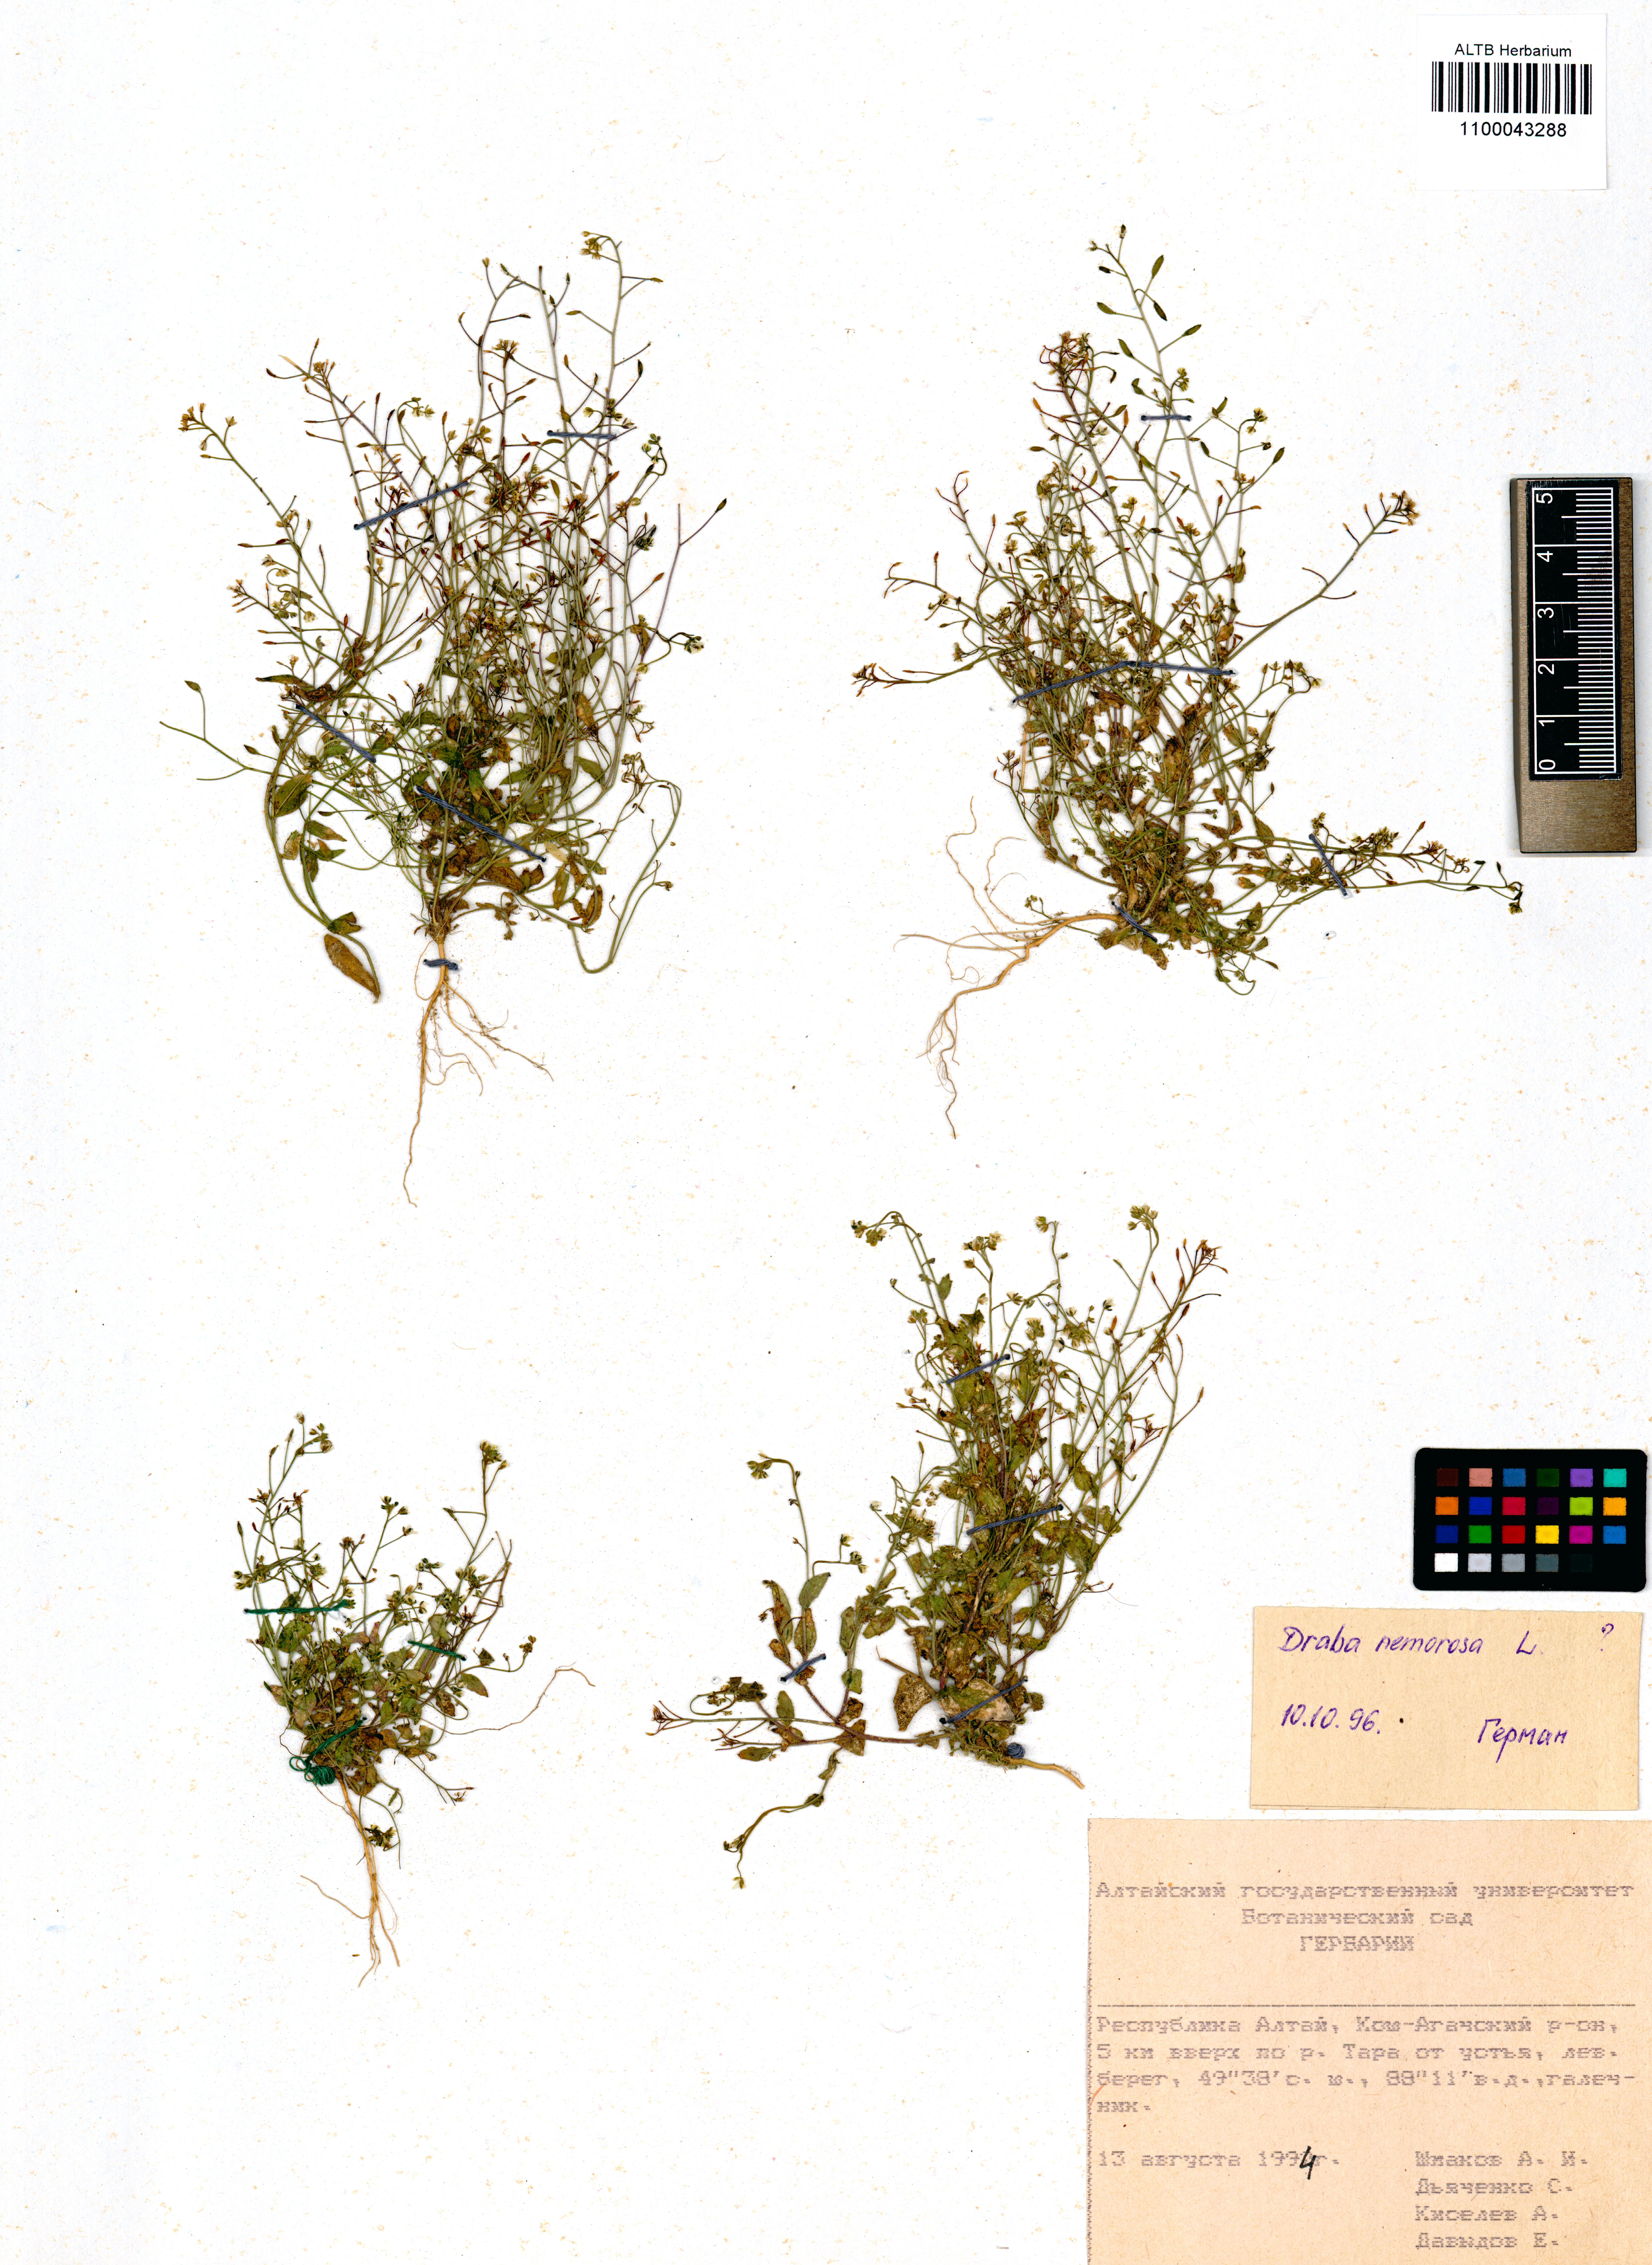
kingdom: Plantae
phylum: Tracheophyta
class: Magnoliopsida
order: Brassicales
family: Brassicaceae
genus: Draba
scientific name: Draba nemorosa
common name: Wood whitlow-grass
